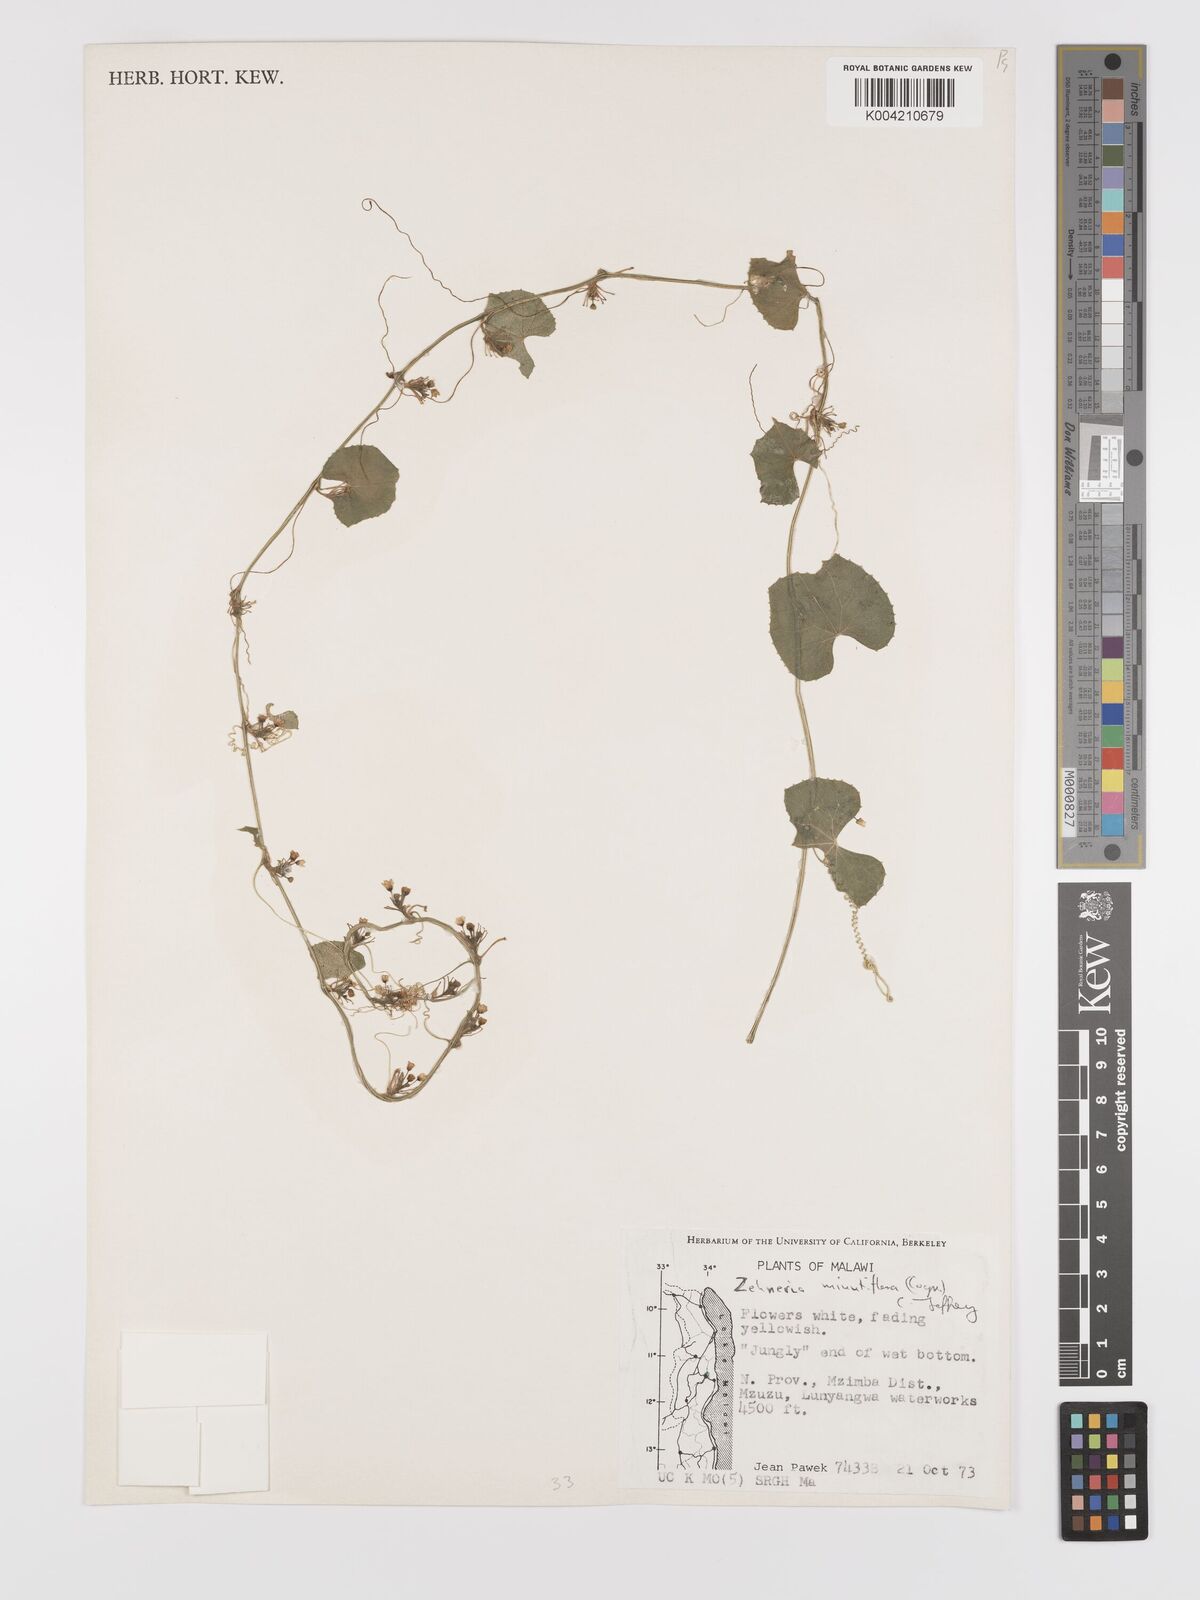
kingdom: Plantae
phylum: Tracheophyta
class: Magnoliopsida
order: Cucurbitales
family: Cucurbitaceae
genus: Zehneria
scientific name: Zehneria minutiflora
